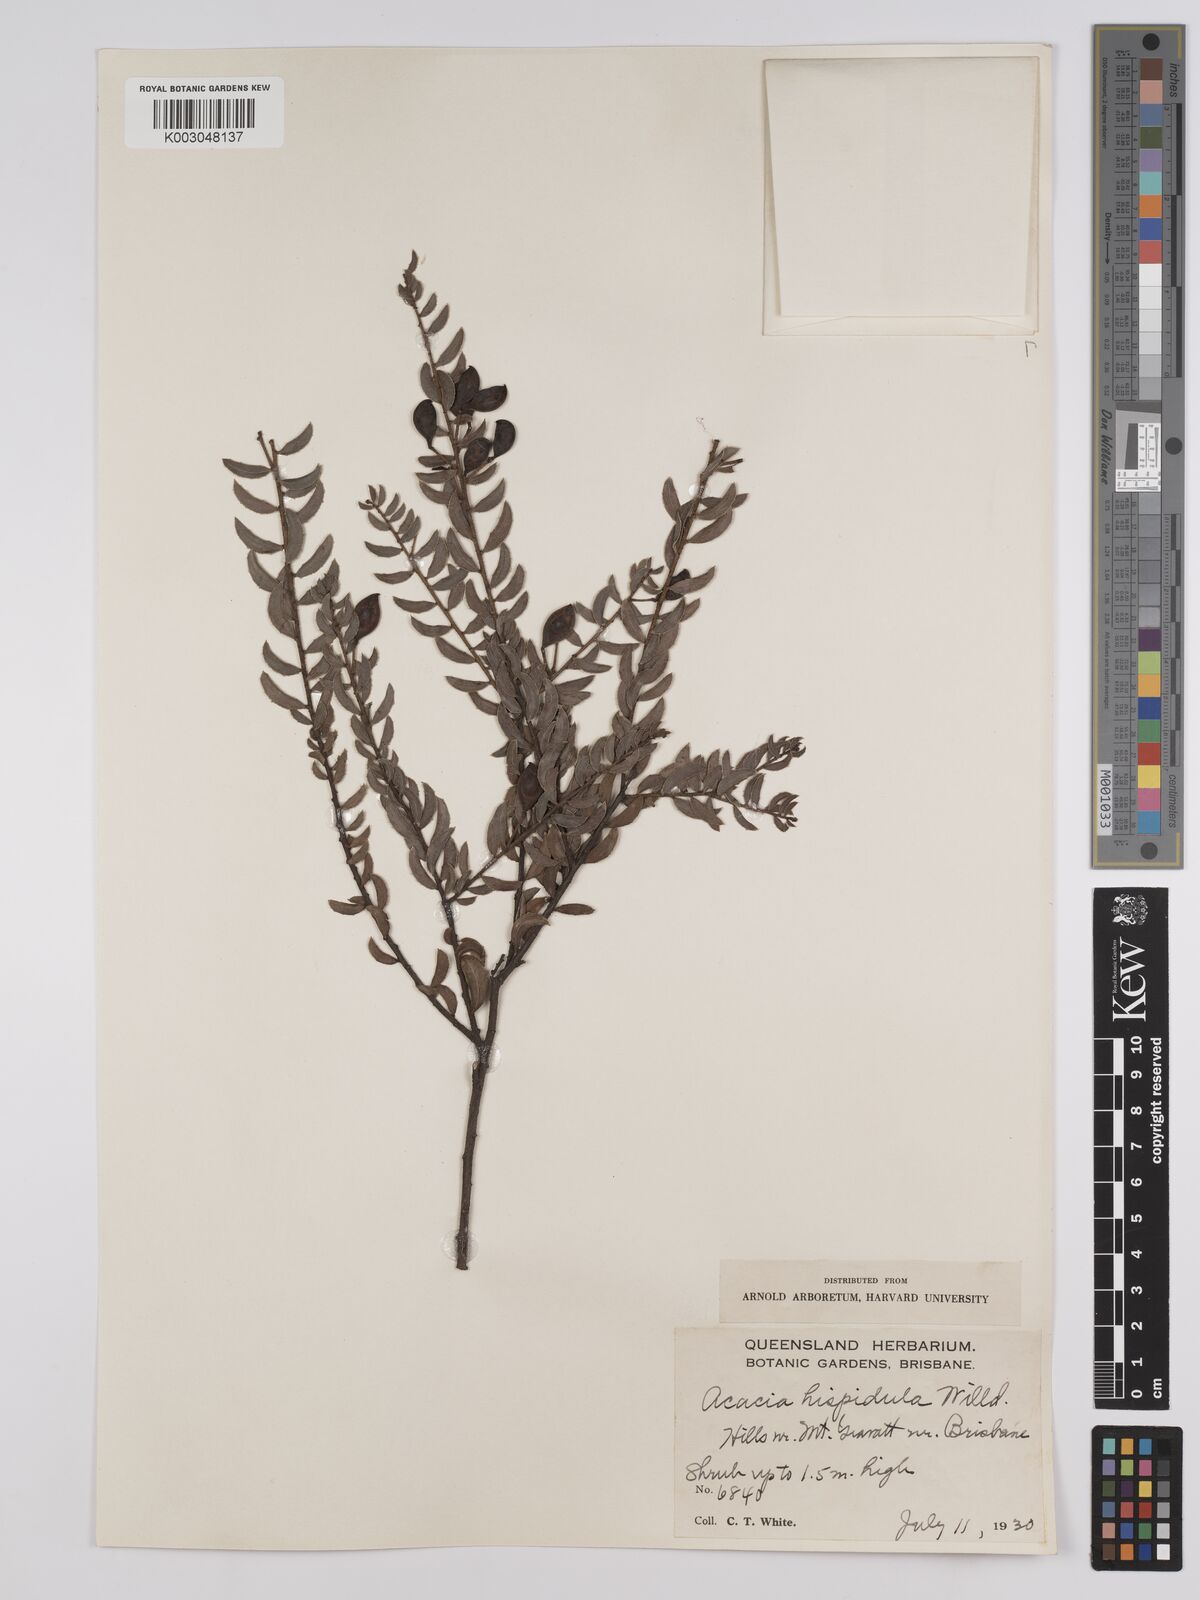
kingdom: Plantae
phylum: Tracheophyta
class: Magnoliopsida
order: Fabales
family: Fabaceae
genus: Acacia
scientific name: Acacia hispidula
